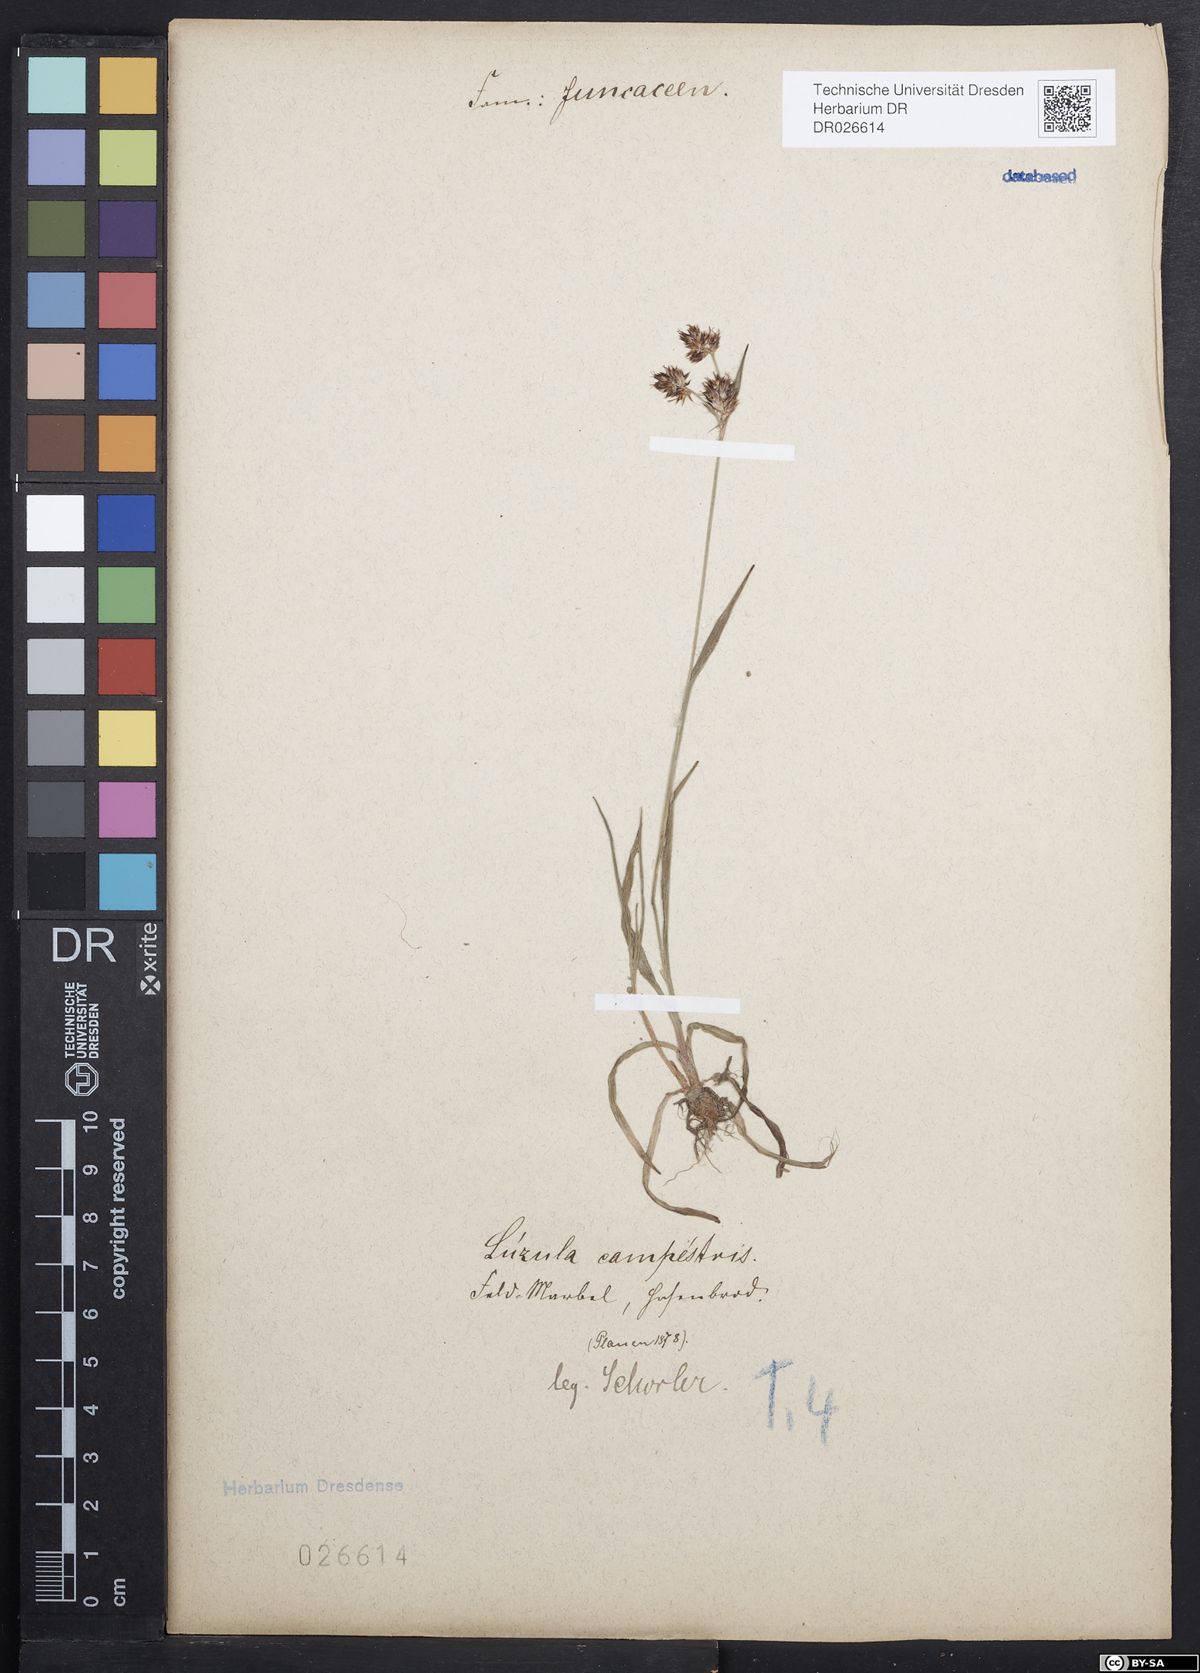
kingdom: Plantae
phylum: Tracheophyta
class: Liliopsida
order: Poales
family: Juncaceae
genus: Luzula
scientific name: Luzula campestris
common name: Field wood-rush
